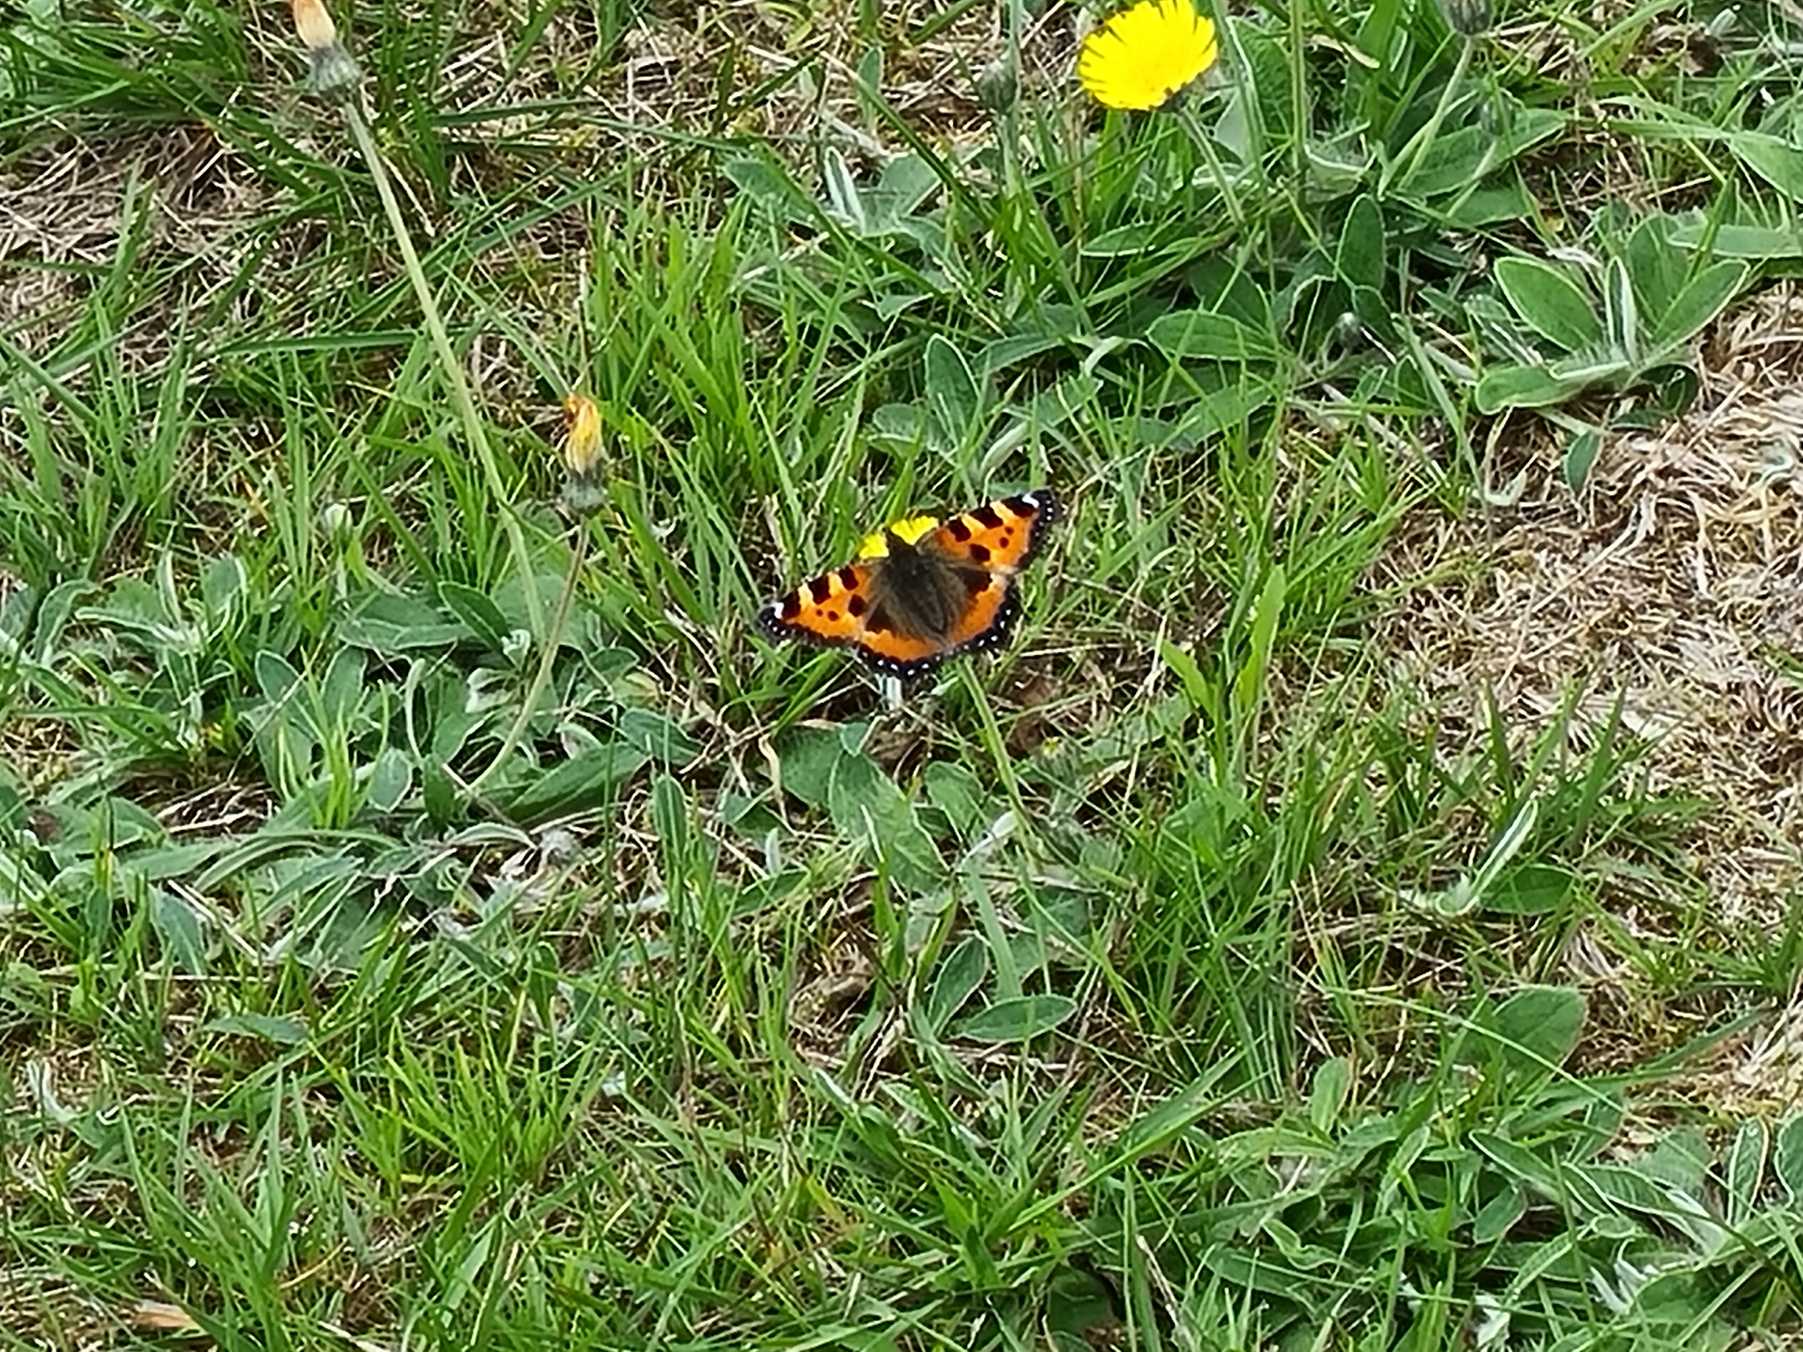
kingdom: Animalia
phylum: Arthropoda
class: Insecta
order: Lepidoptera
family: Nymphalidae
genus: Aglais
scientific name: Aglais urticae
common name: Nældens takvinge
